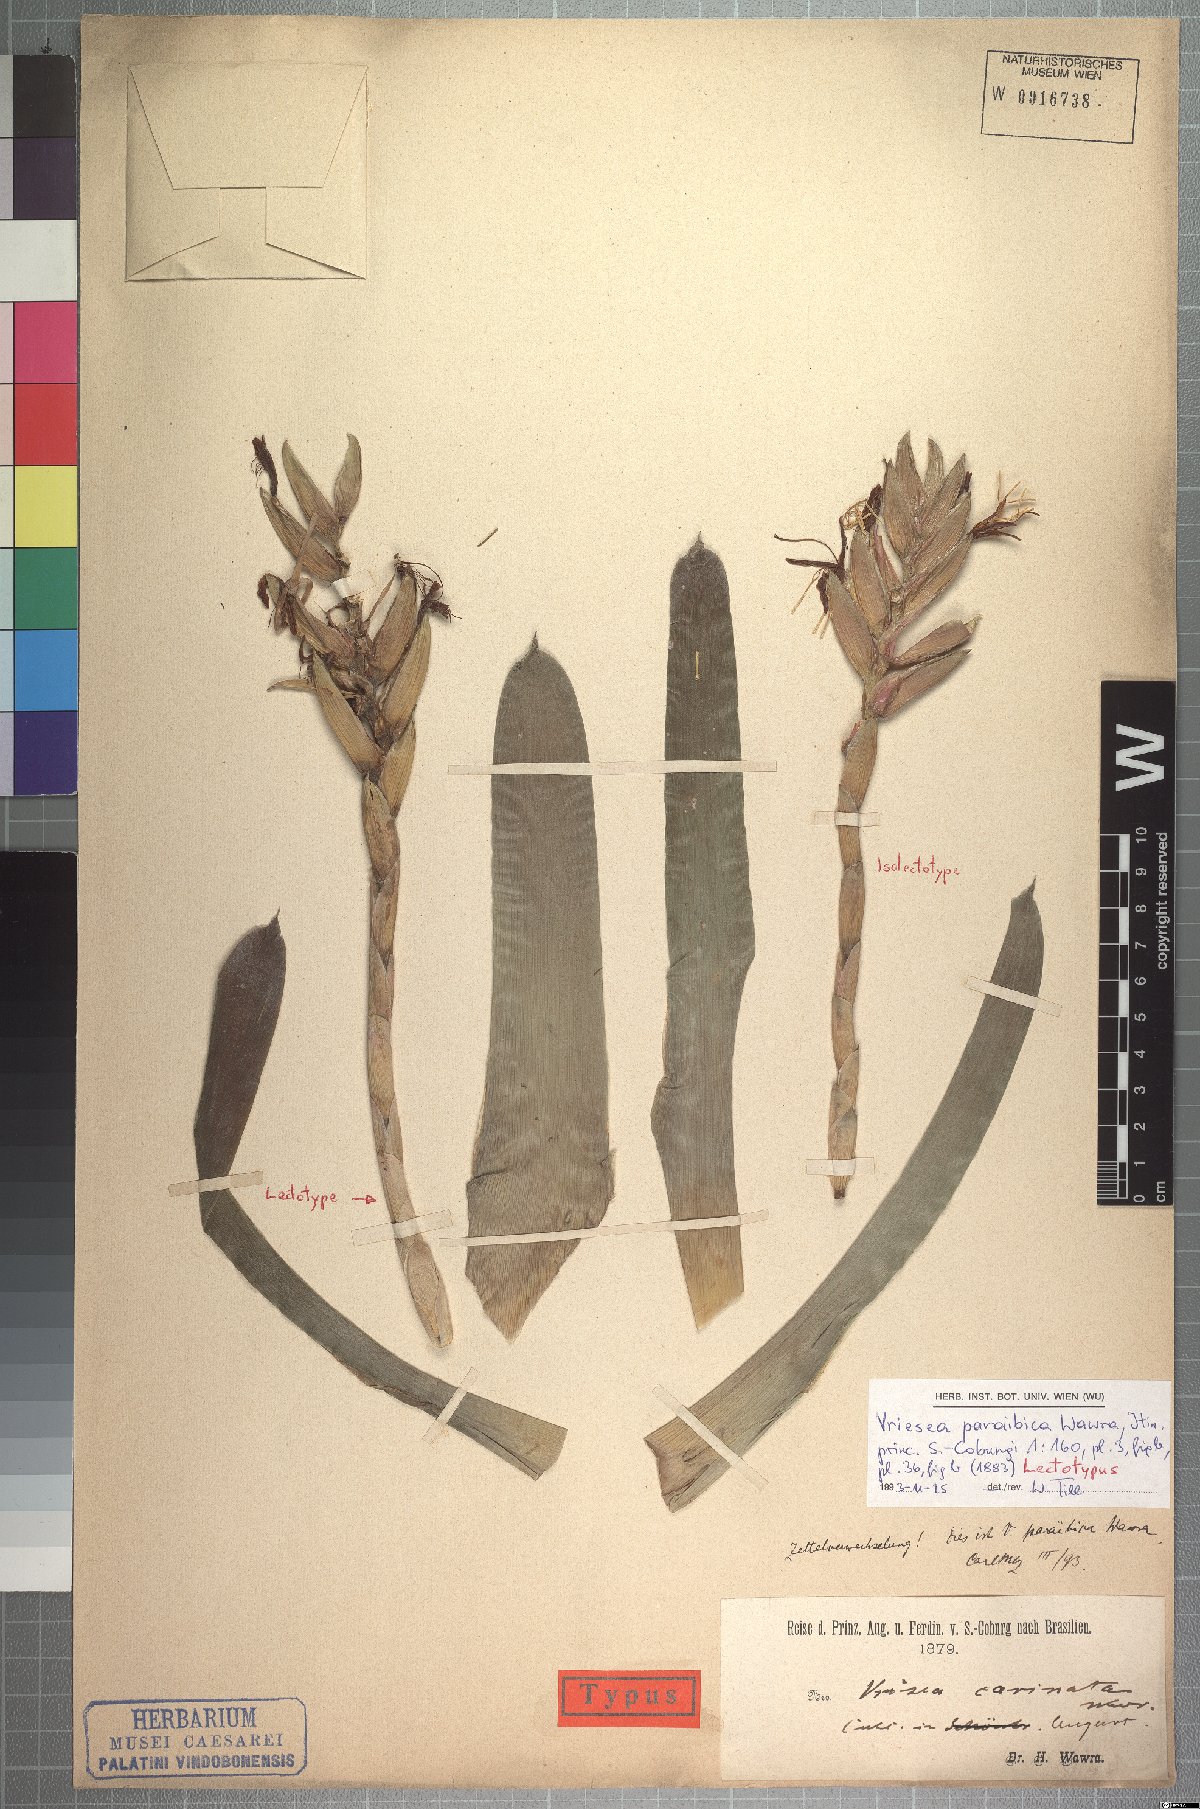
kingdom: Plantae
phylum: Tracheophyta
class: Liliopsida
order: Poales
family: Bromeliaceae
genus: Vriesea
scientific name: Vriesea paraibica
